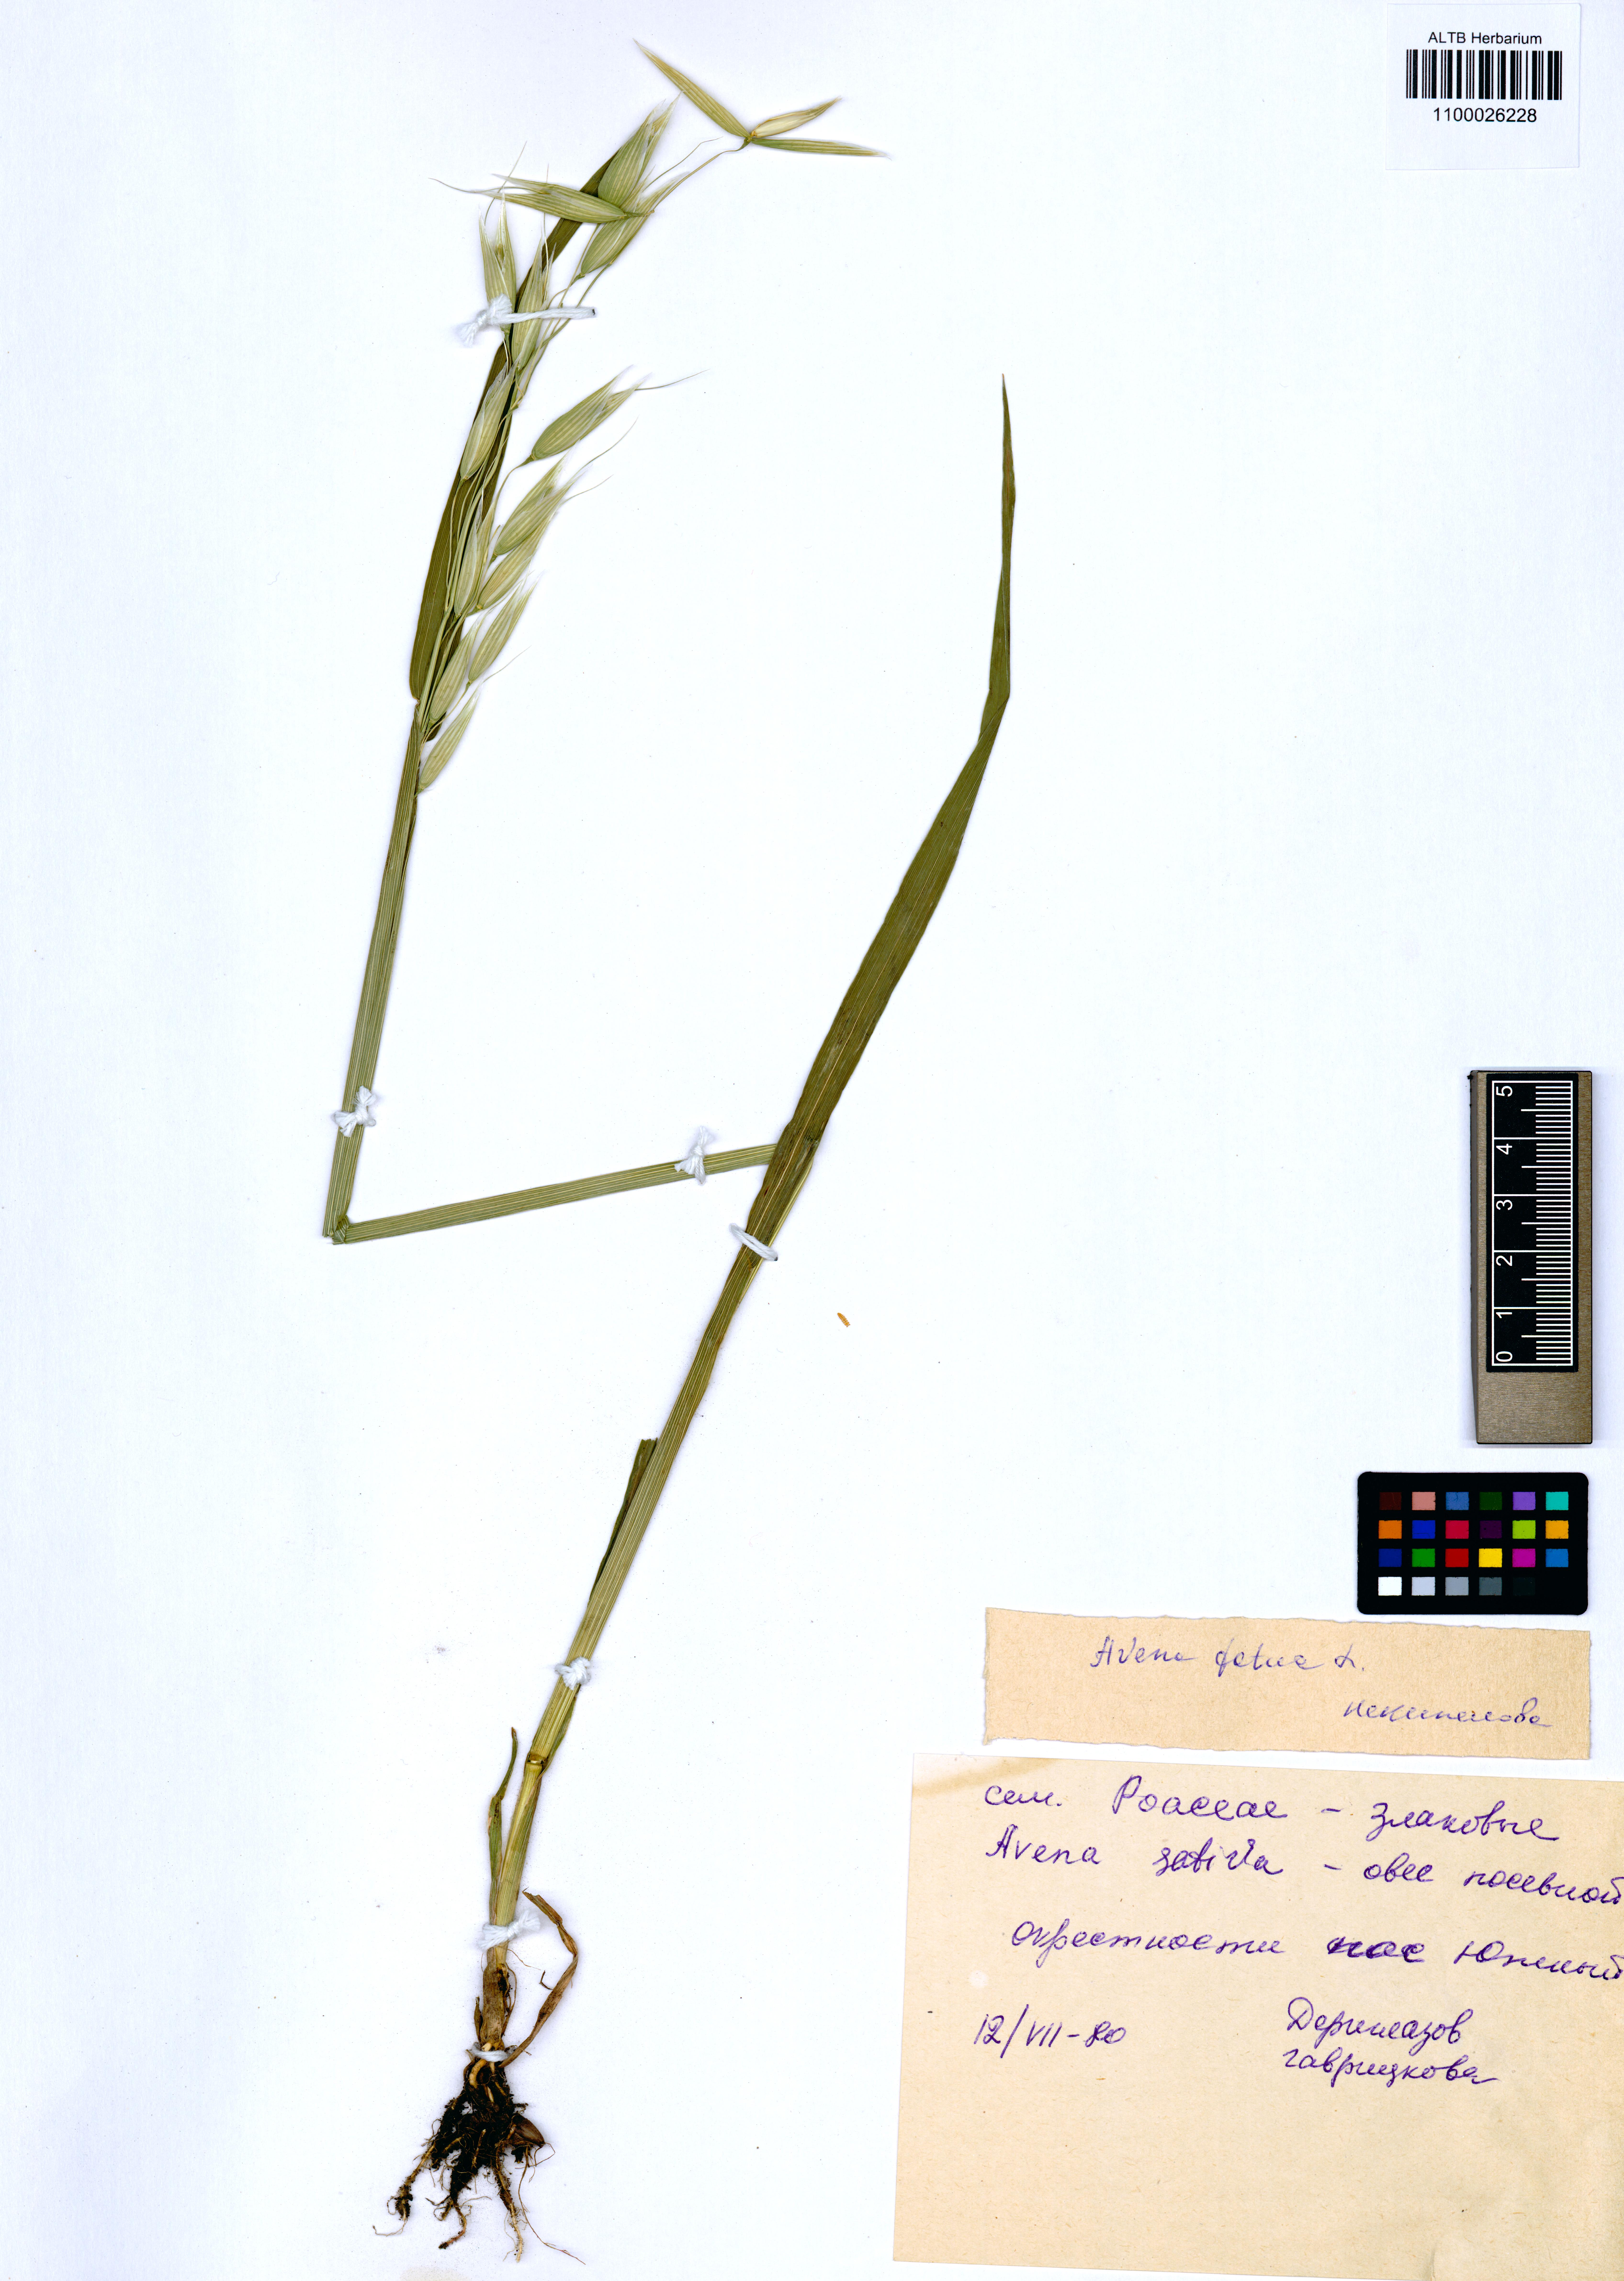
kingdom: Plantae
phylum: Tracheophyta
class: Liliopsida
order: Poales
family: Poaceae
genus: Avena
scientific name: Avena sativa
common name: Oat
